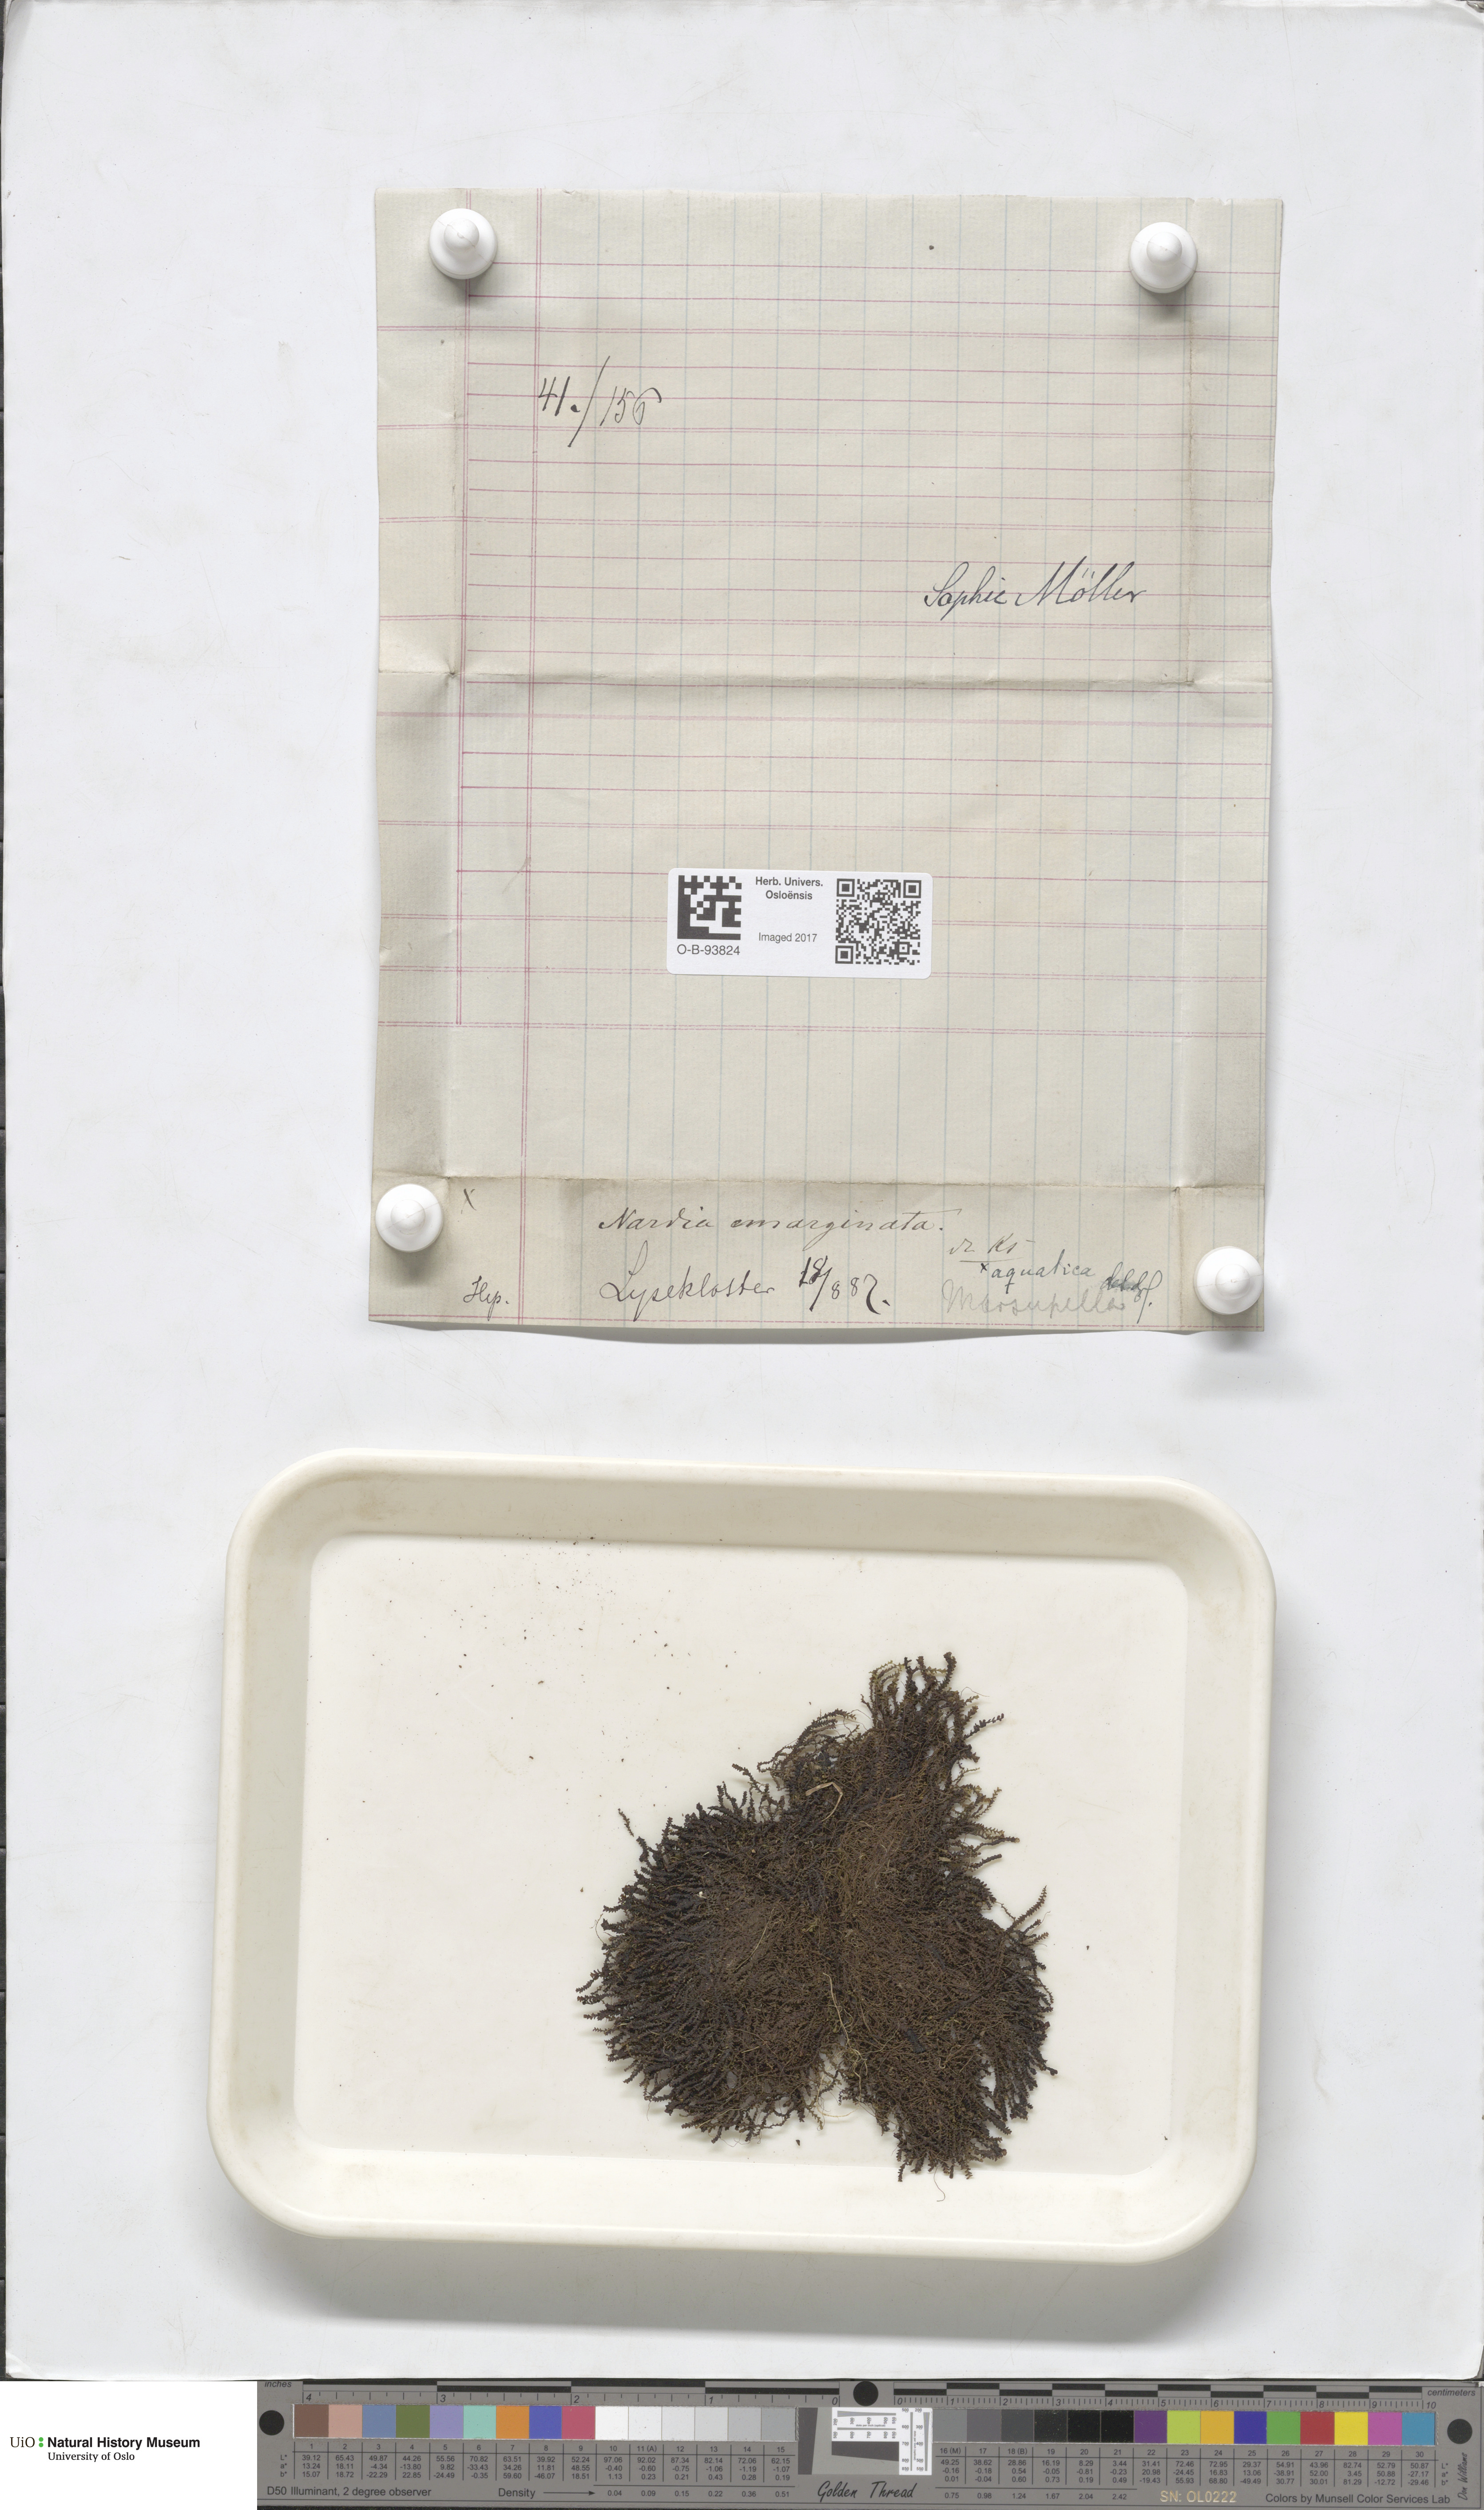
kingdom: Plantae
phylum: Marchantiophyta
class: Jungermanniopsida
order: Jungermanniales
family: Gymnomitriaceae
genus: Marsupella
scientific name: Marsupella emarginata
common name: Notched rustwort
